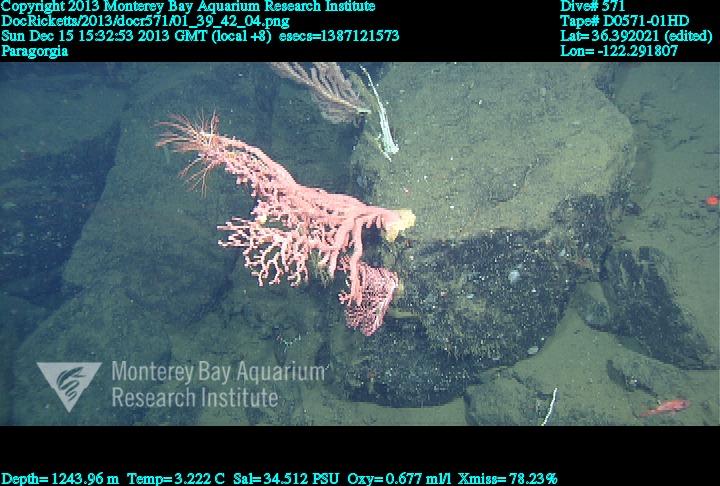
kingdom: Animalia
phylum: Cnidaria
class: Anthozoa
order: Scleralcyonacea
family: Coralliidae
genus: Paragorgia
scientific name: Paragorgia arborea
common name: Bubble gum coral
